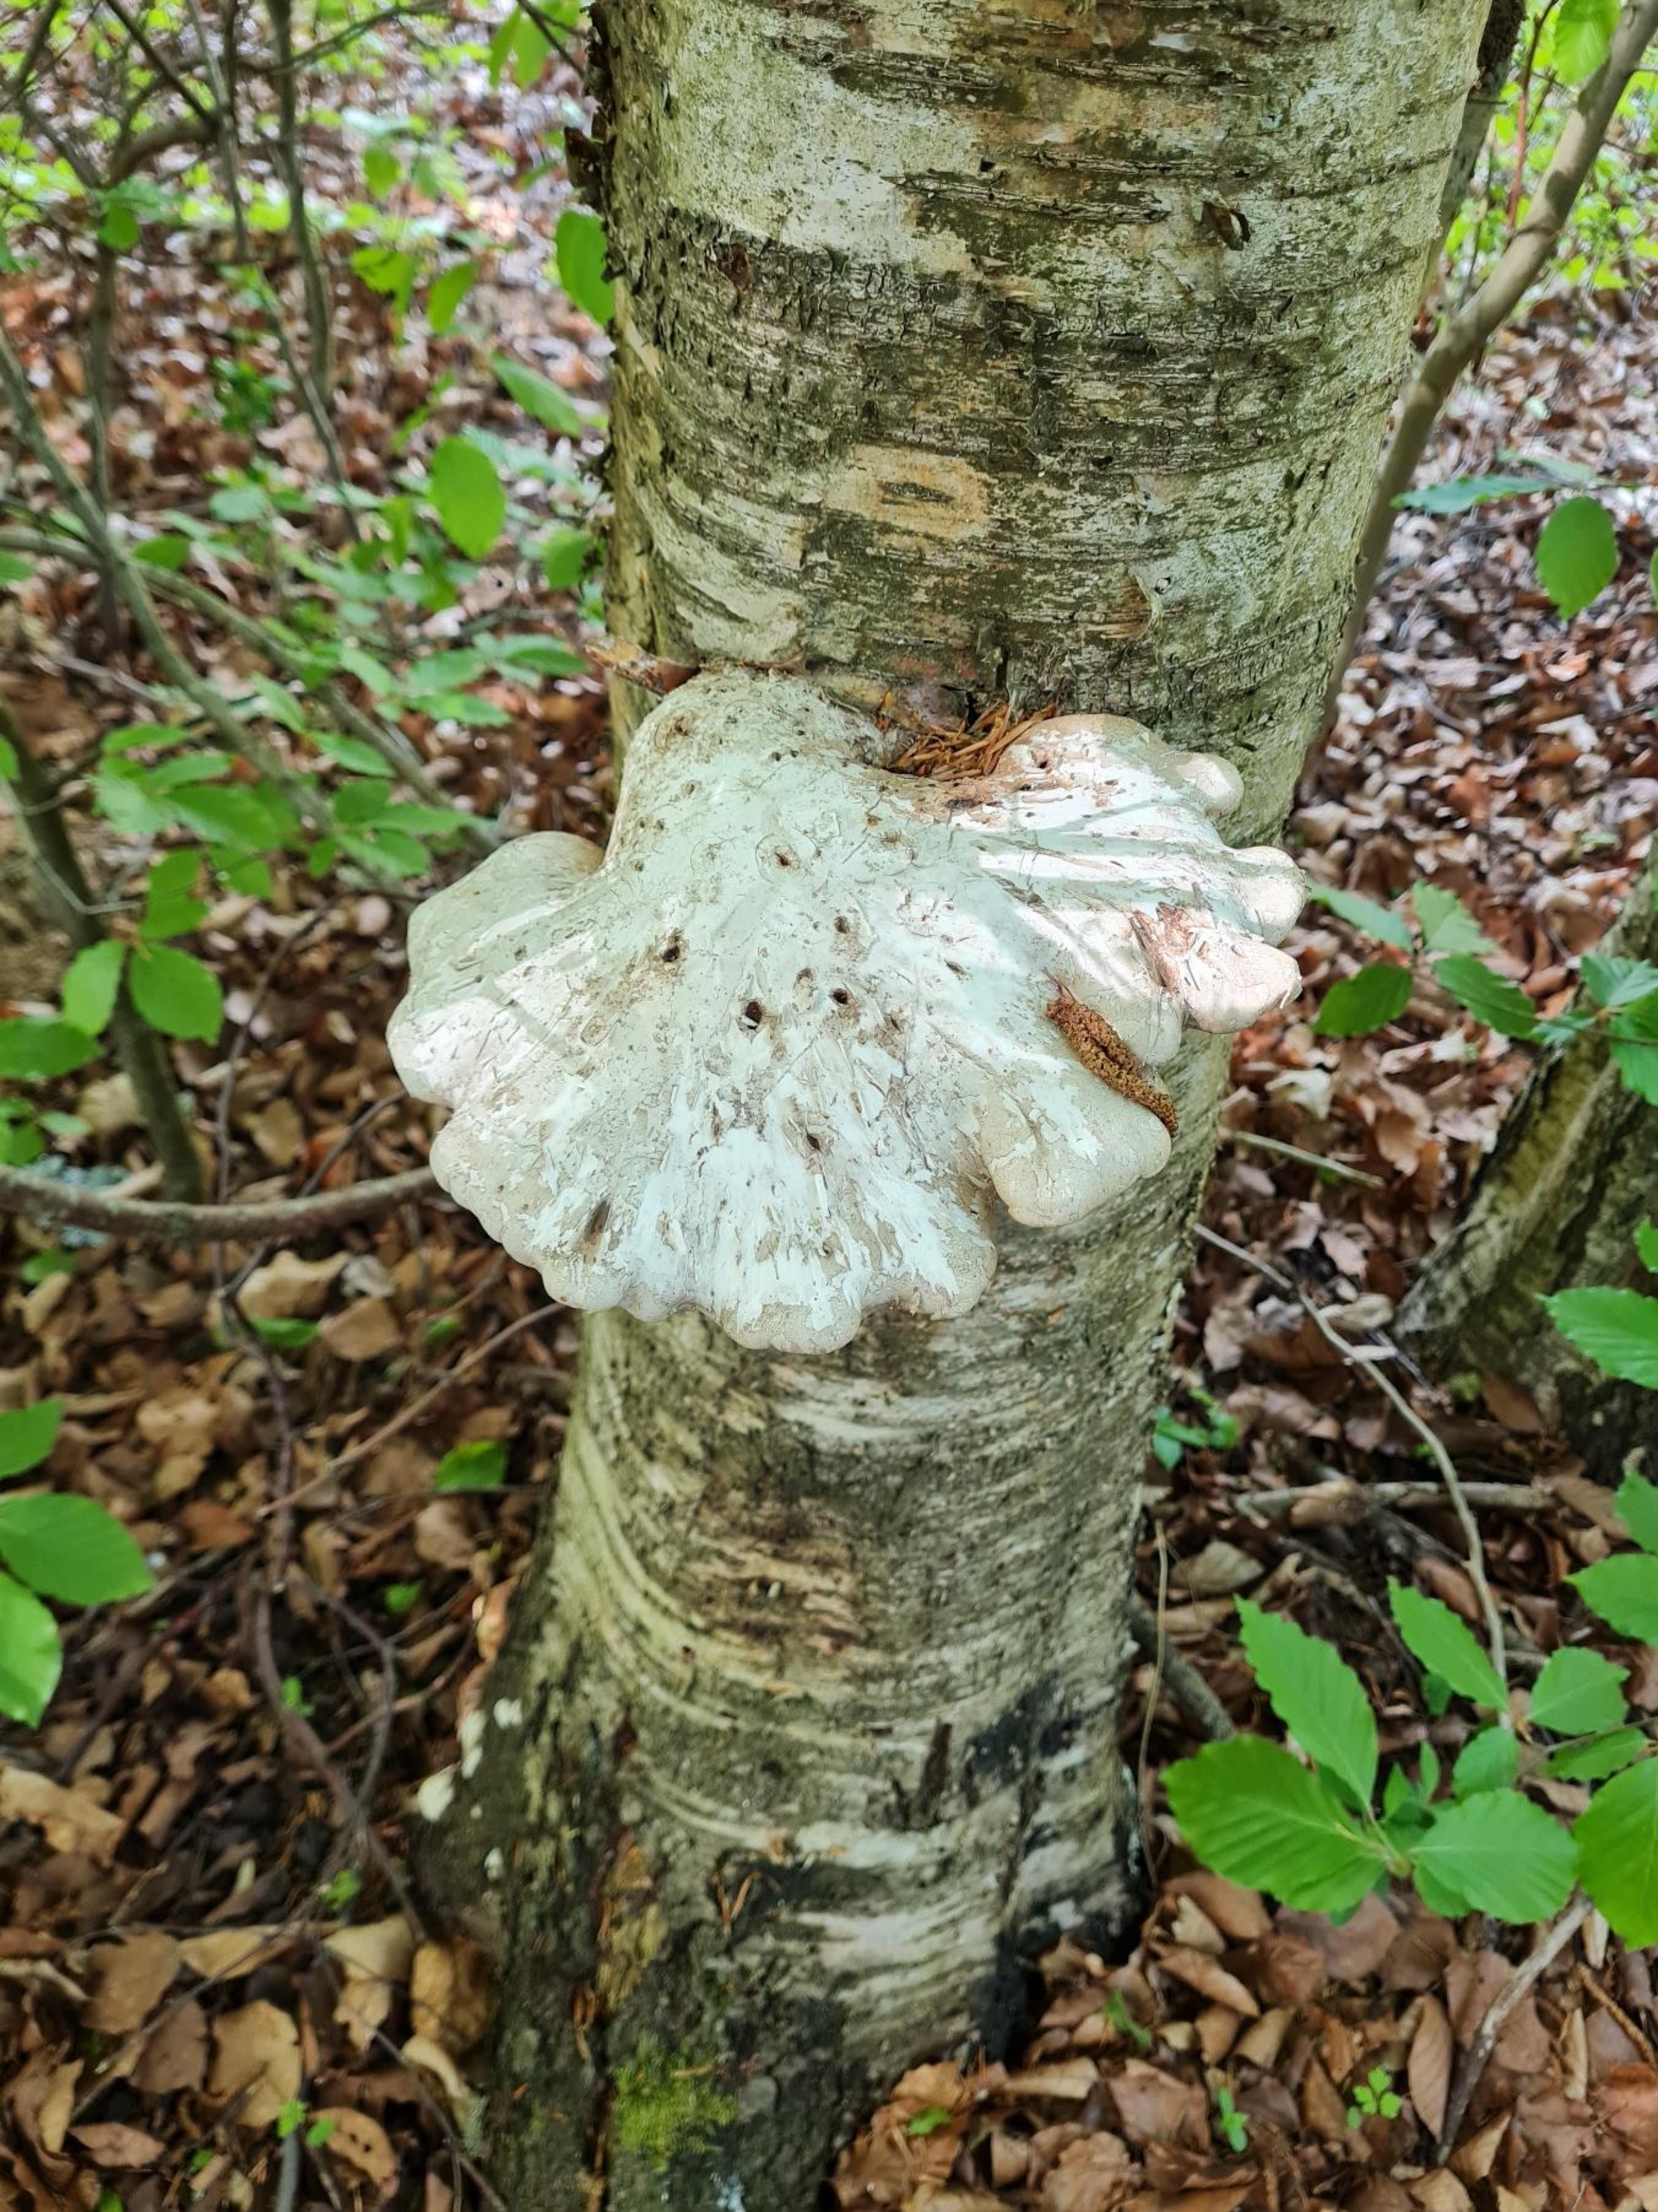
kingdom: Fungi
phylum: Basidiomycota
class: Agaricomycetes
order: Polyporales
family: Fomitopsidaceae
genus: Fomitopsis
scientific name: Fomitopsis betulina
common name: Birkeporesvamp
